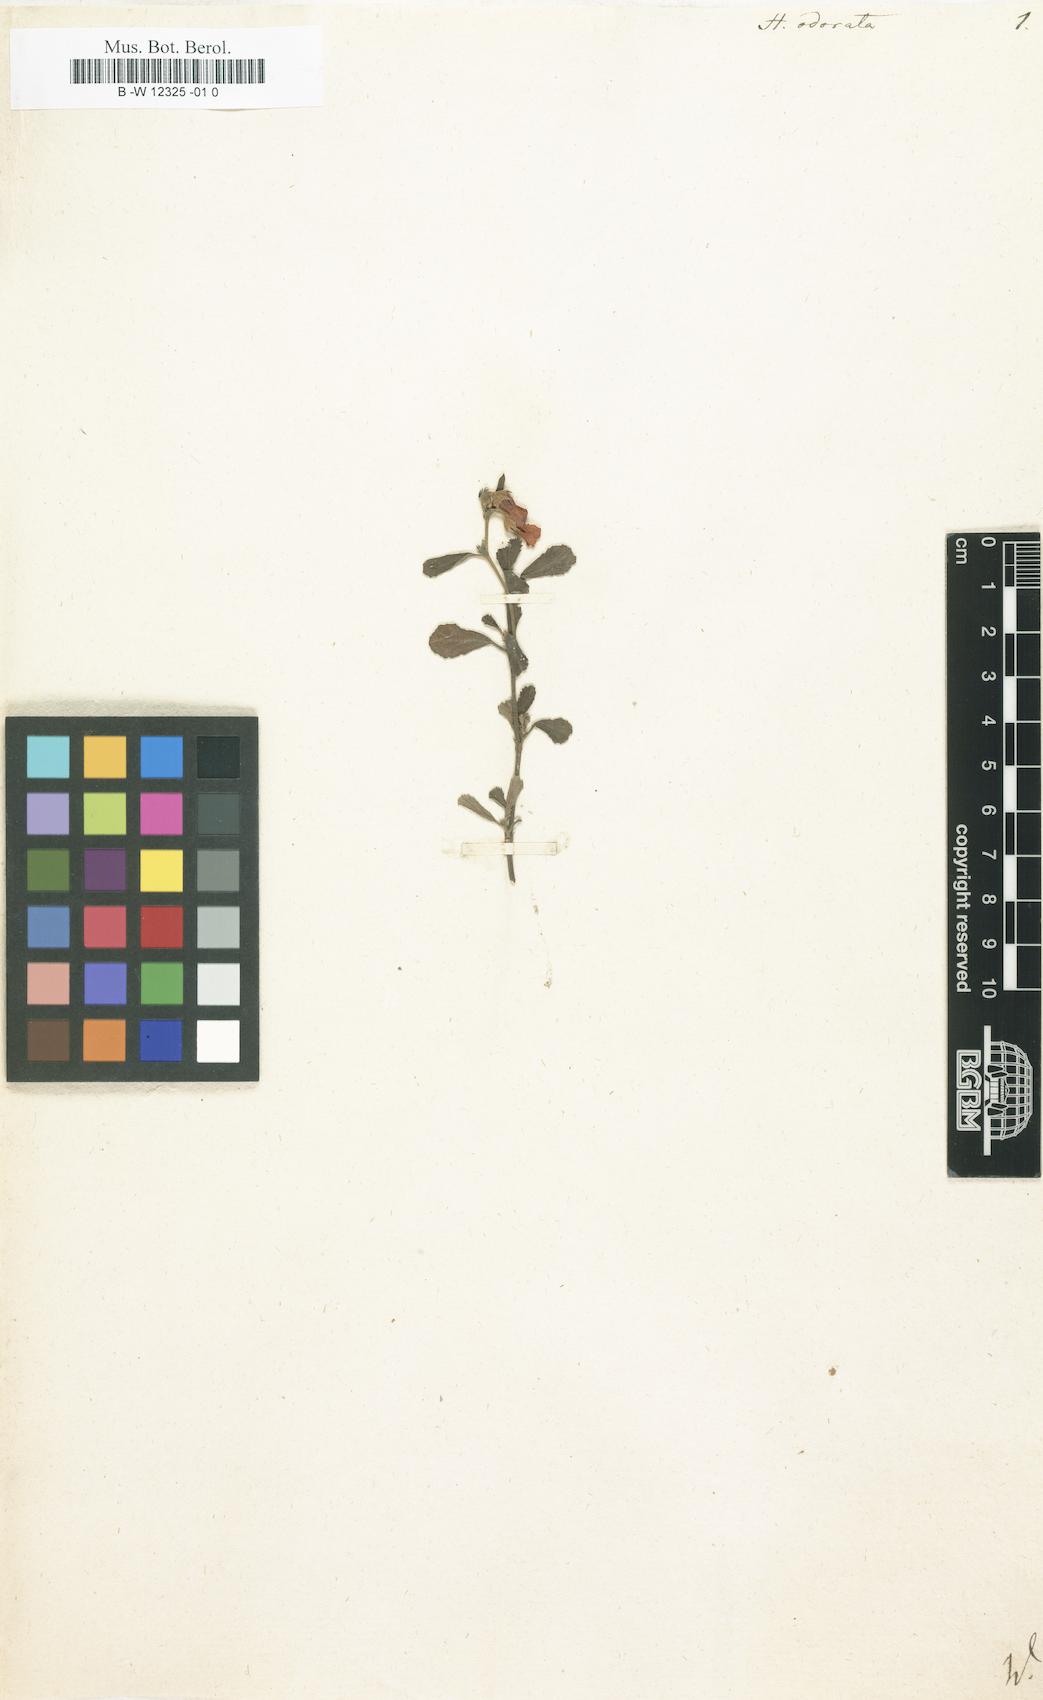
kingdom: Plantae
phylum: Tracheophyta
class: Magnoliopsida
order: Malvales
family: Malvaceae
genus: Hermannia
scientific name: Hermannia odorata
